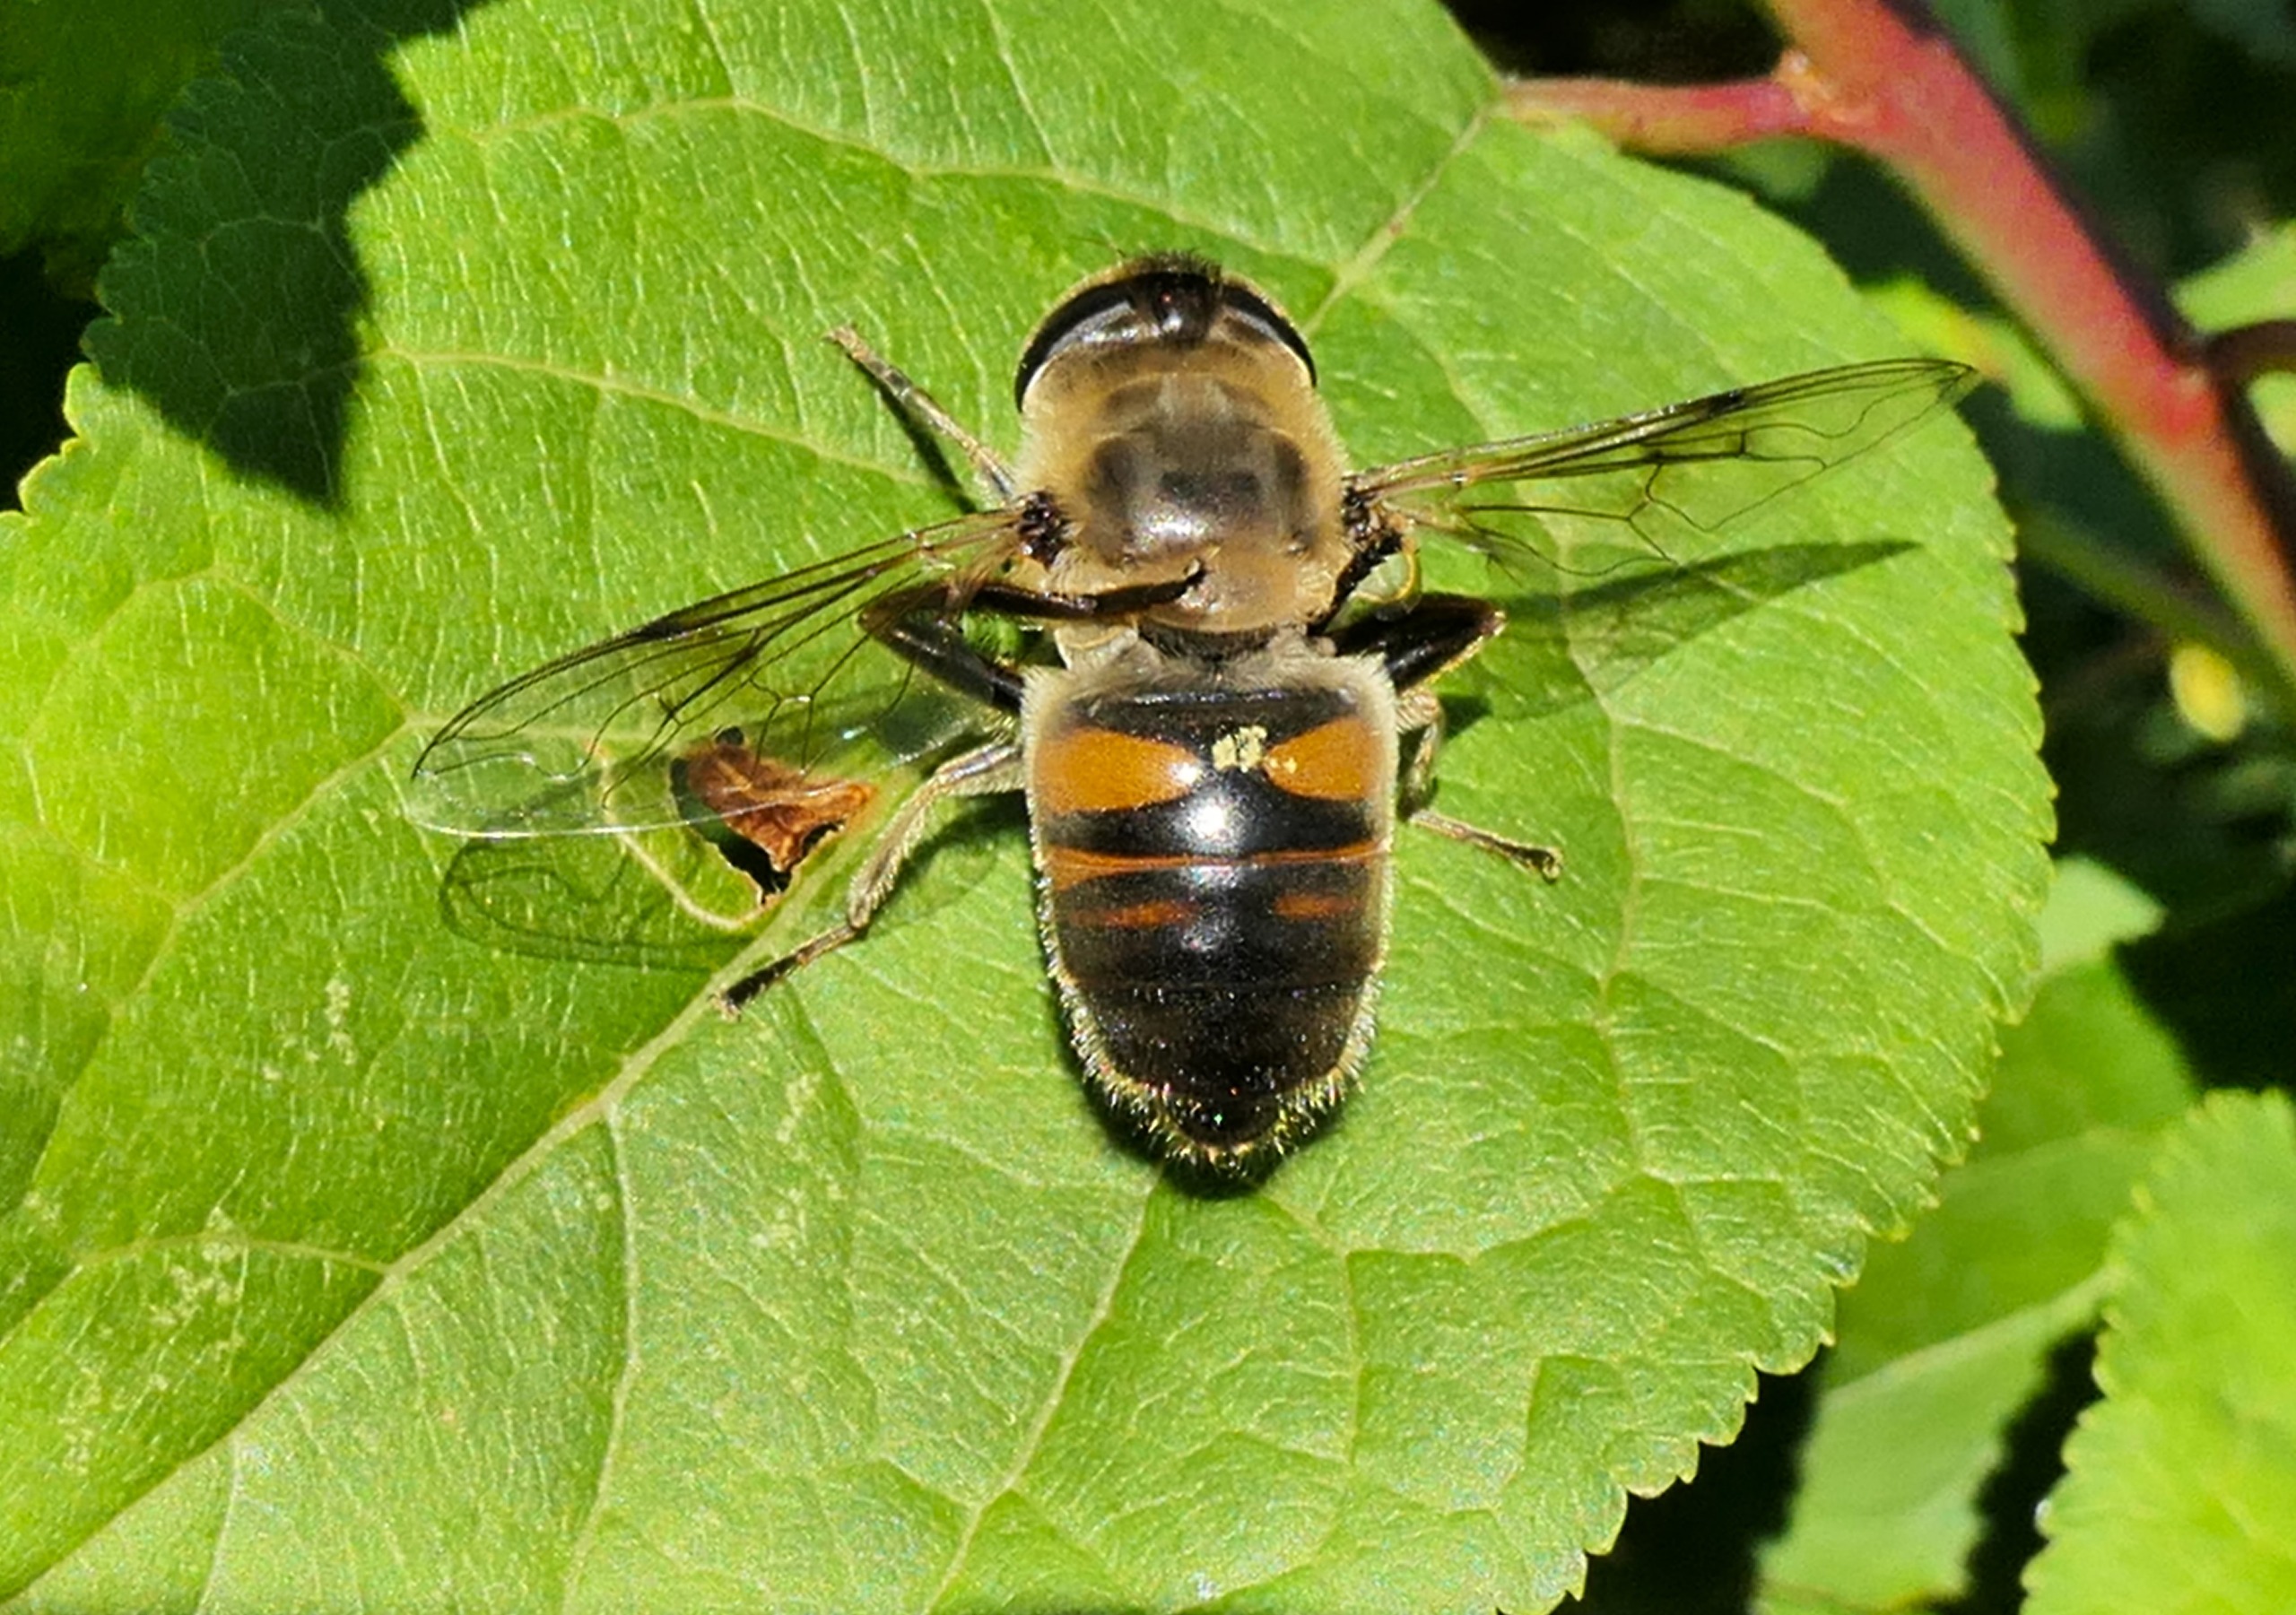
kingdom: Animalia
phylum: Arthropoda
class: Insecta
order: Diptera
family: Syrphidae
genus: Eristalis
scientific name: Eristalis tenax
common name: Droneflue
